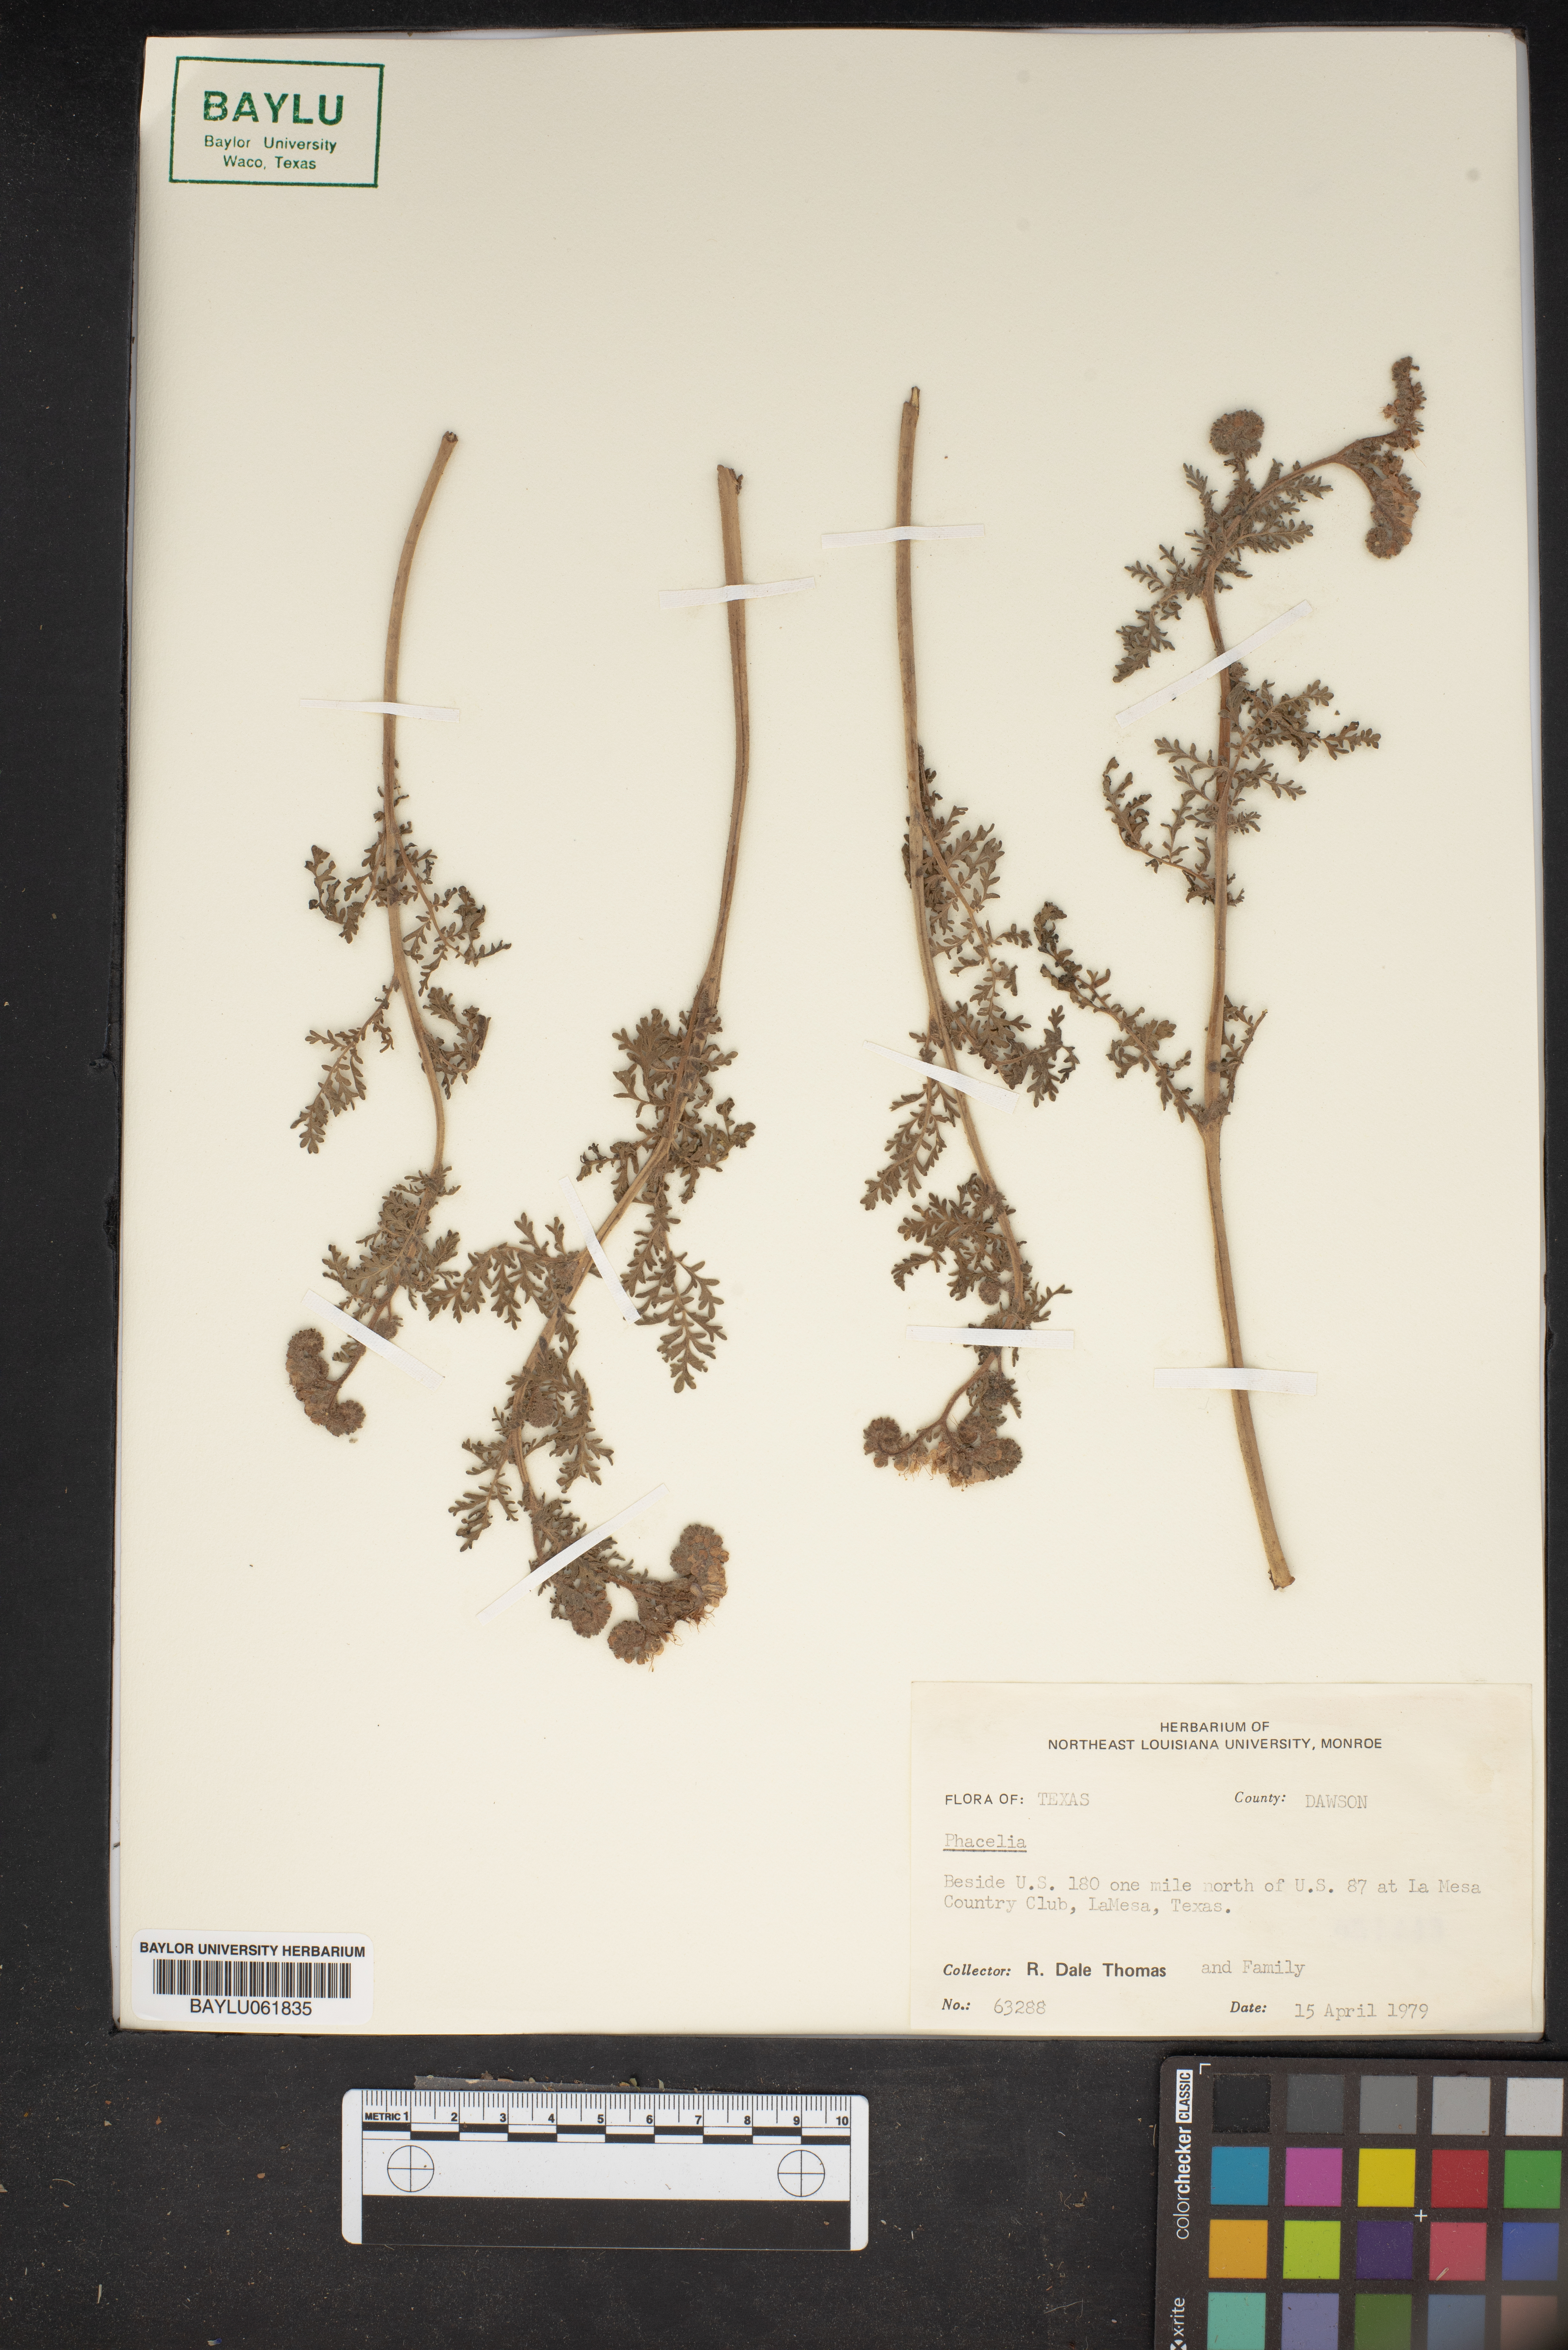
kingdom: Plantae
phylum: Tracheophyta
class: Magnoliopsida
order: Boraginales
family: Hydrophyllaceae
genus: Phacelia
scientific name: Phacelia
